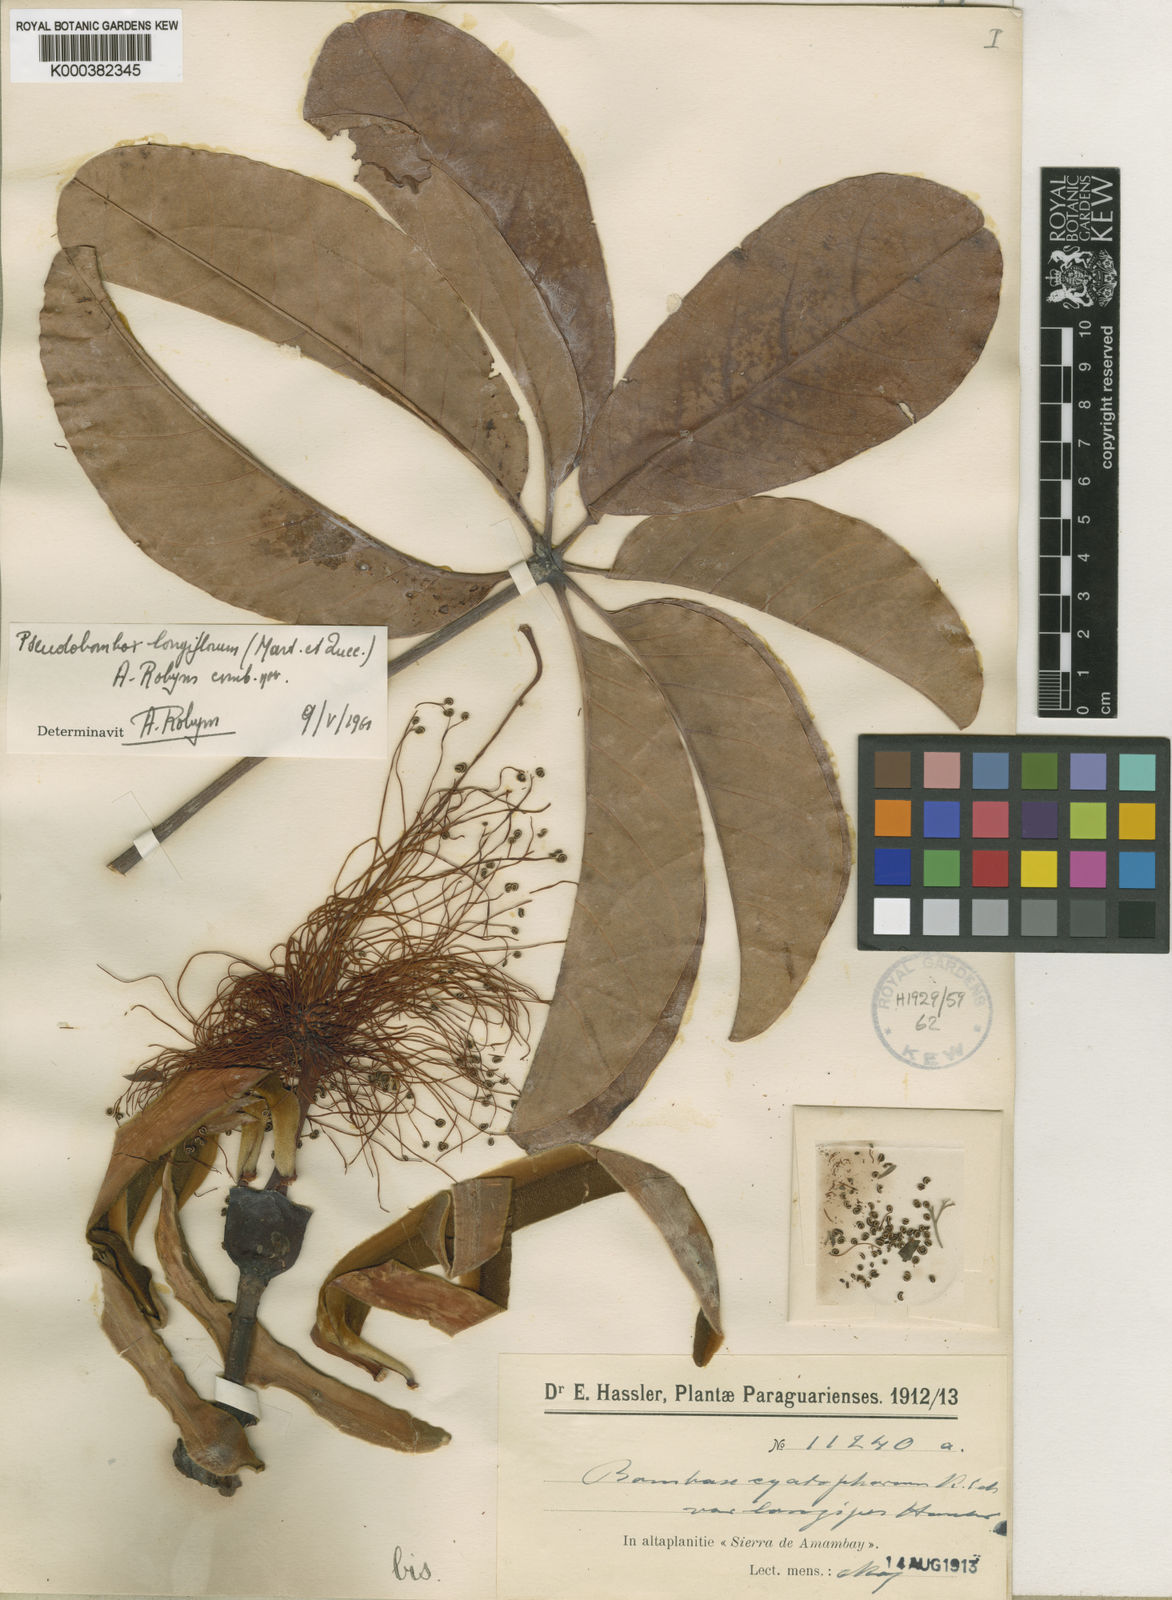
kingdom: Plantae
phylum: Tracheophyta
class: Magnoliopsida
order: Malvales
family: Malvaceae
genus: Pseudobombax
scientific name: Pseudobombax longiflorum
